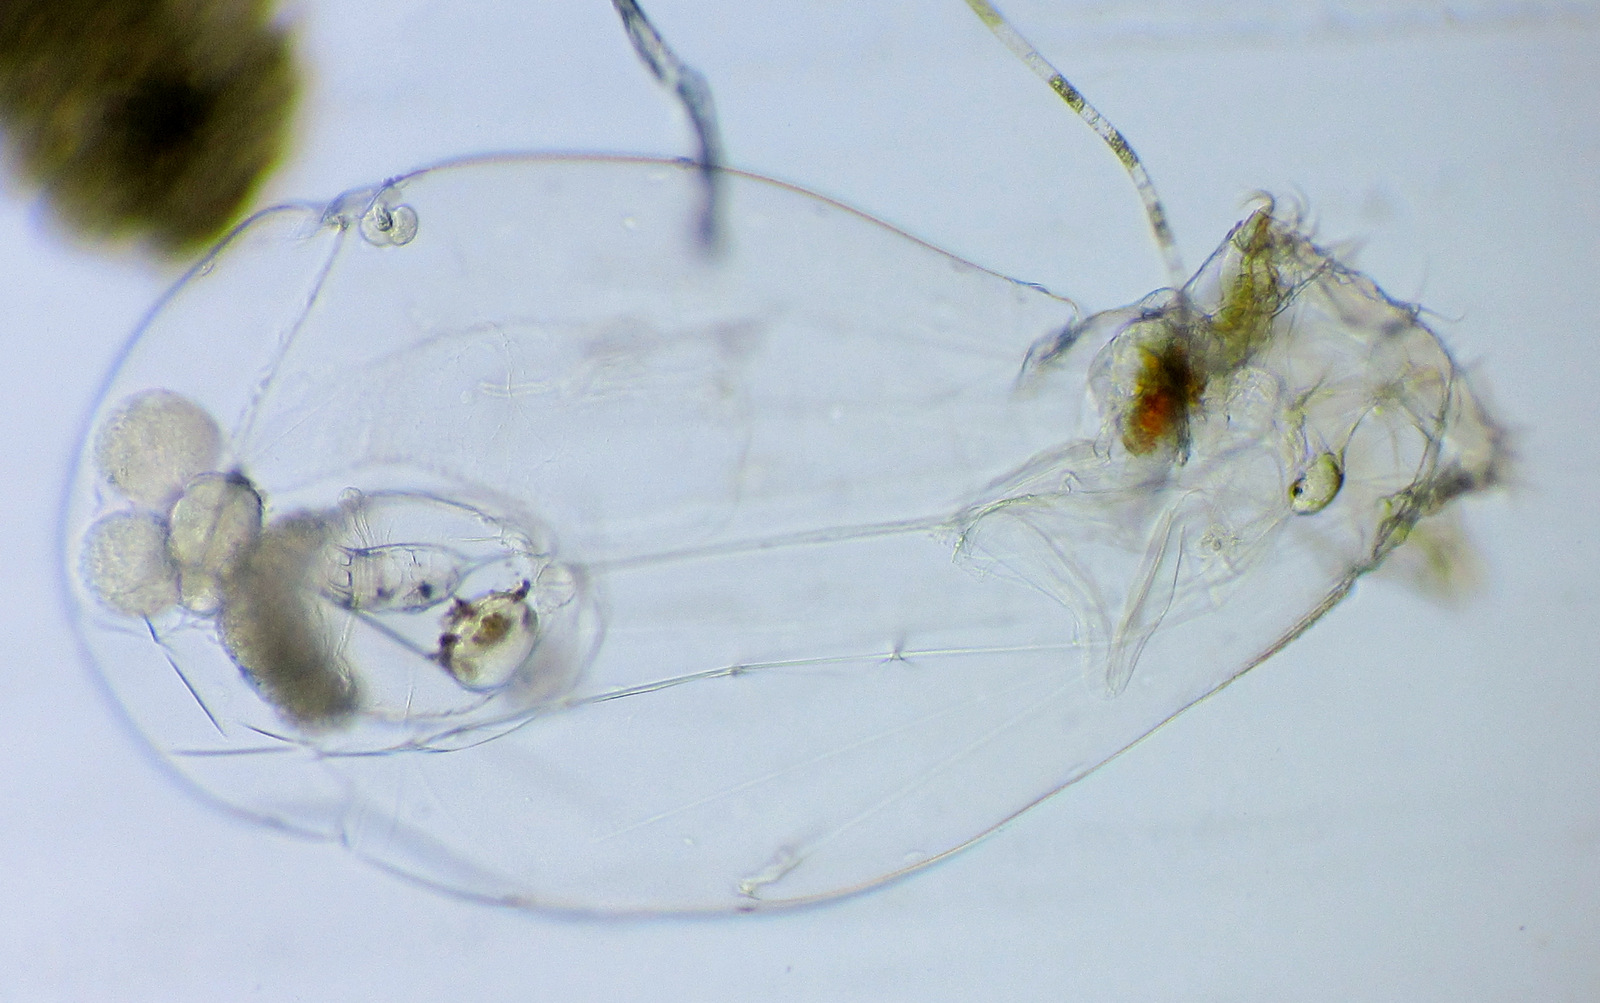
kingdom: Animalia
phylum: Rotifera
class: Eurotatoria
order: Ploima
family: Asplanchnidae
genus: Asplanchna
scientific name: Asplanchna priodonta
